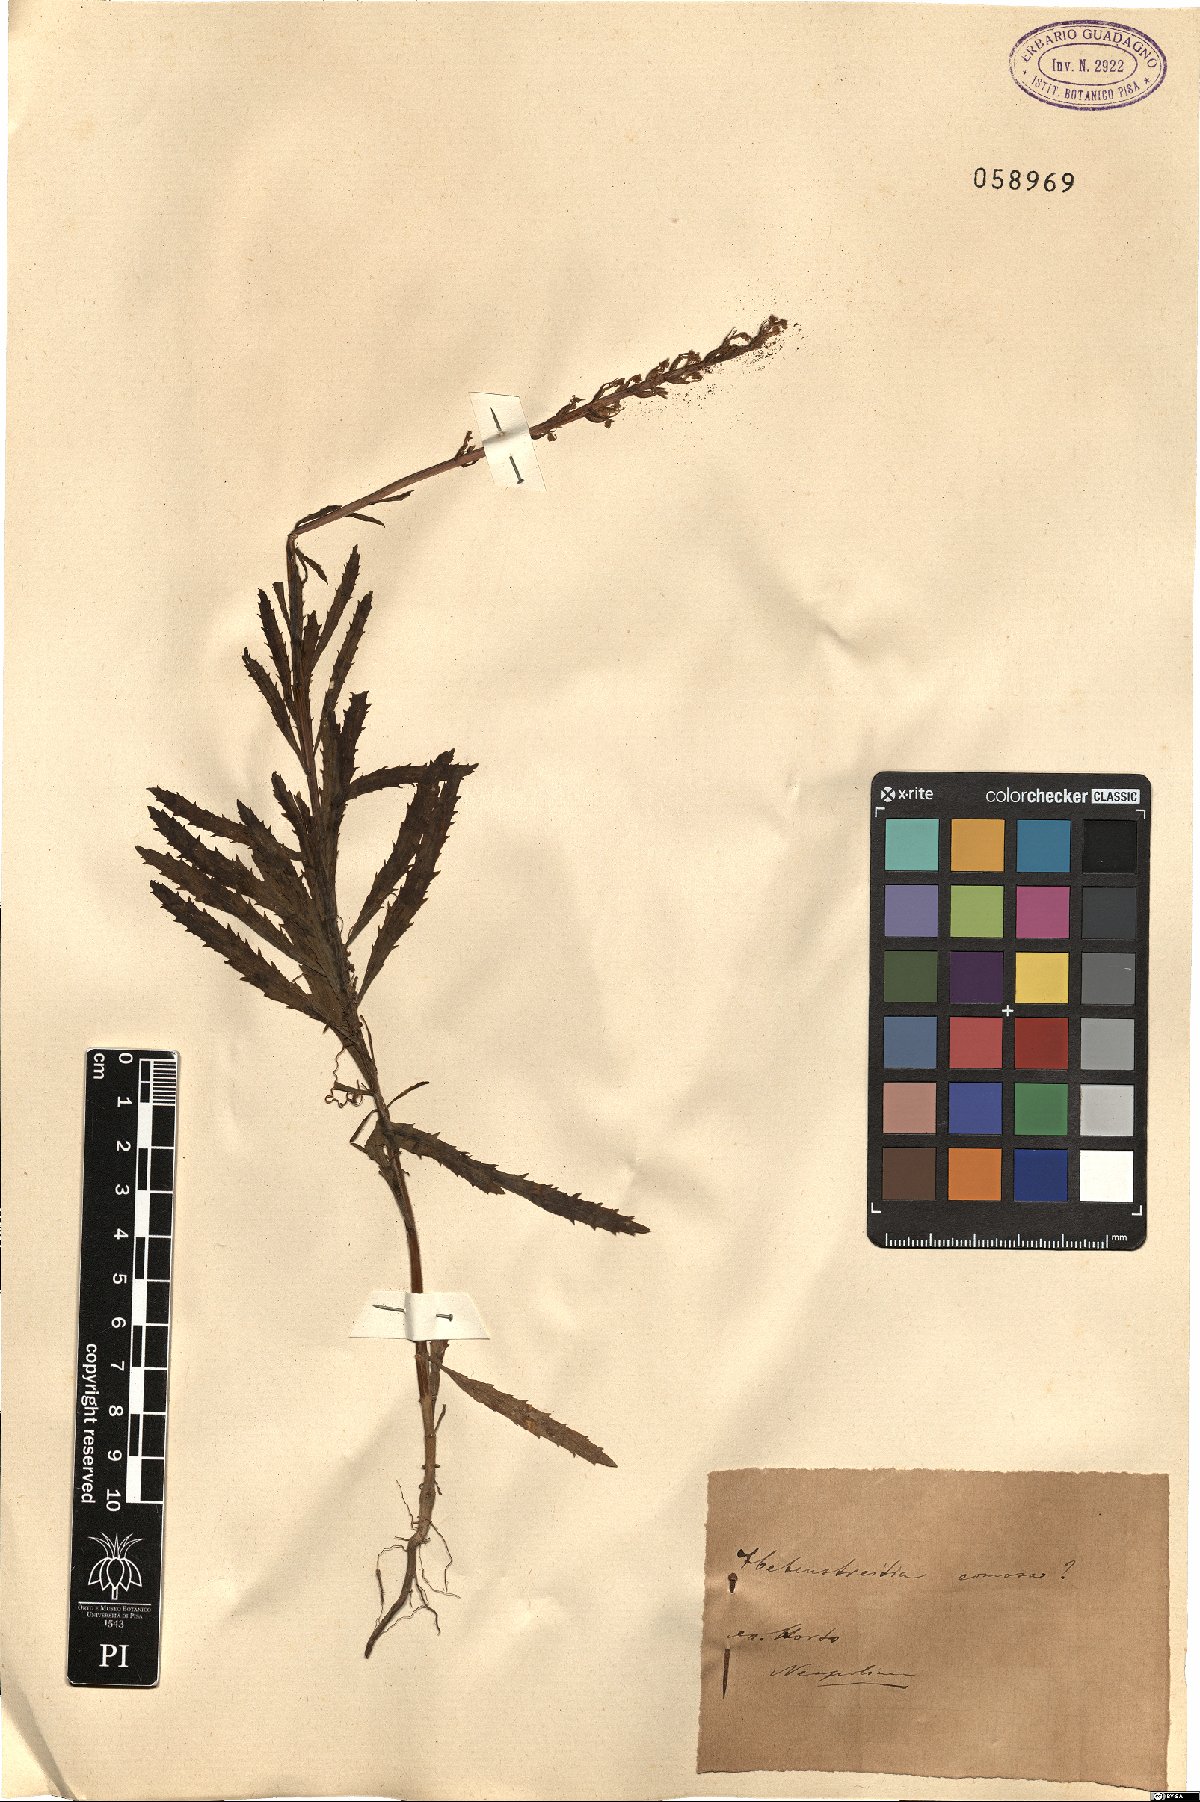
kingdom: Plantae
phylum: Tracheophyta
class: Magnoliopsida
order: Lamiales
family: Scrophulariaceae
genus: Hebenstretia
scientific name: Hebenstretia comosa
